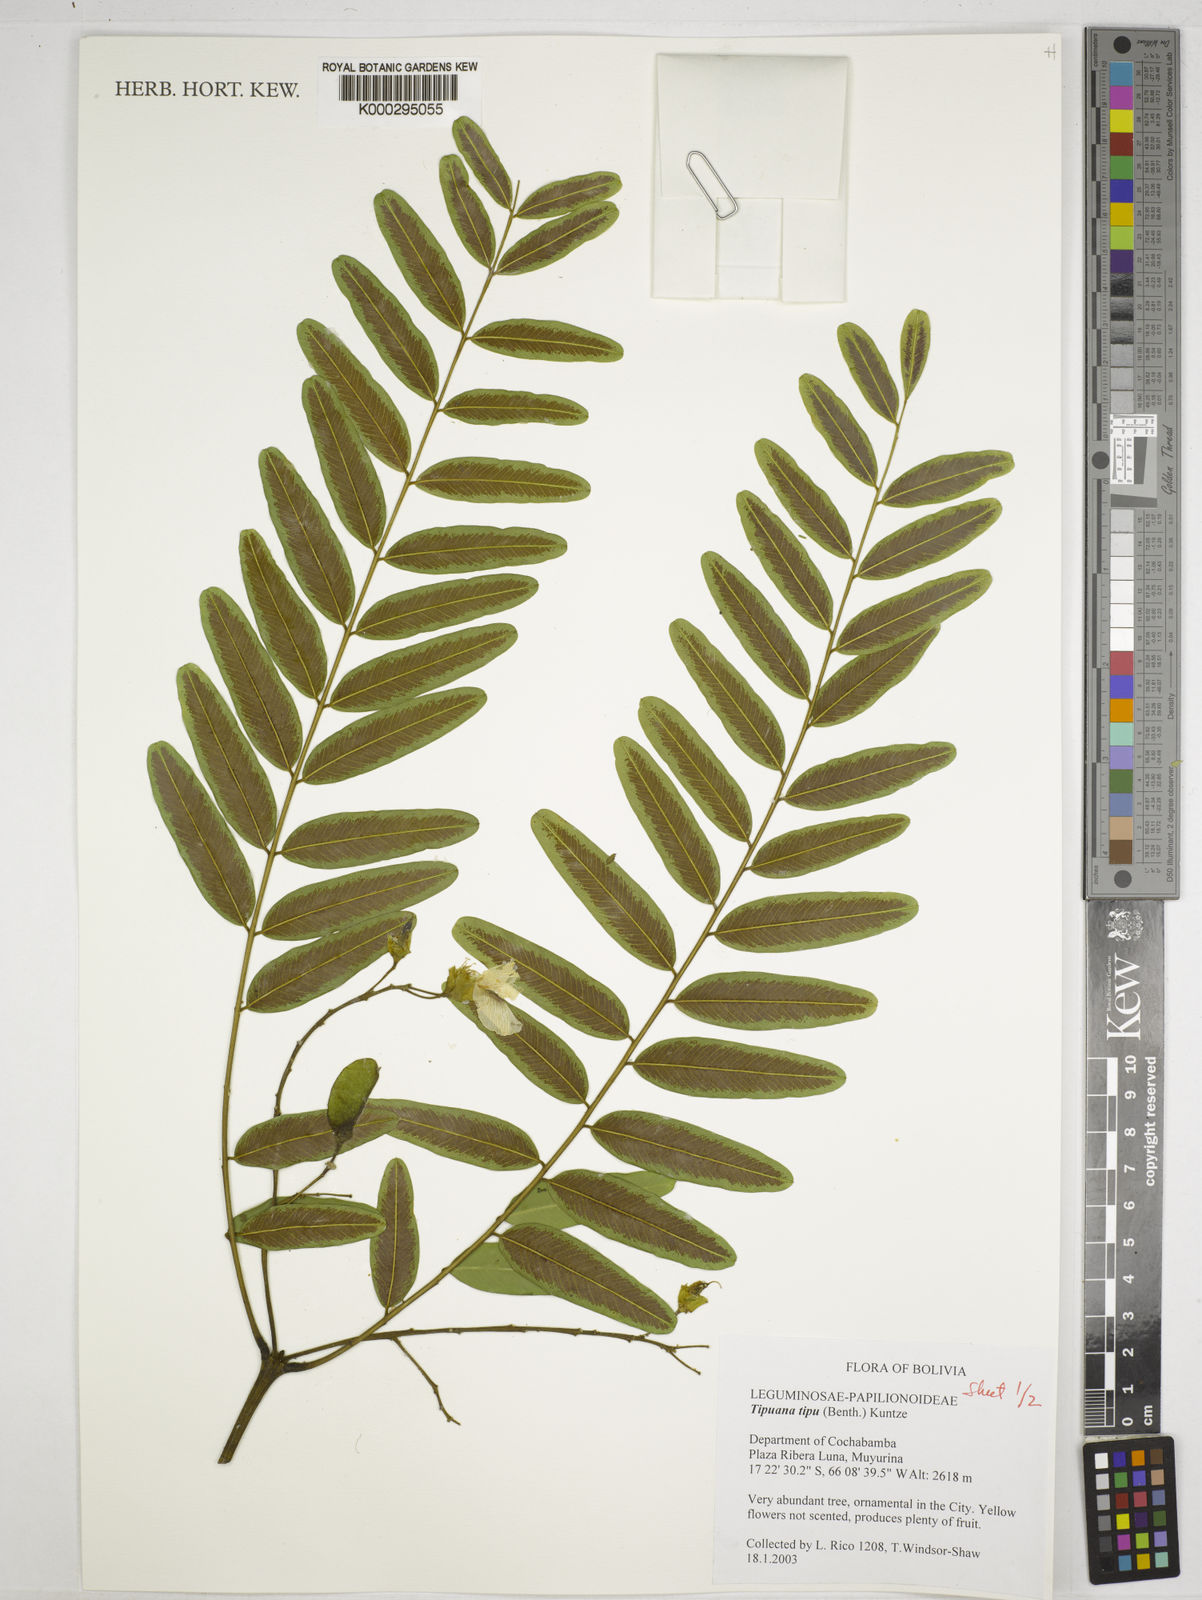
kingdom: Plantae
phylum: Tracheophyta
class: Magnoliopsida
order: Fabales
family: Fabaceae
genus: Tipuana
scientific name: Tipuana tipu
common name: Tiputree
